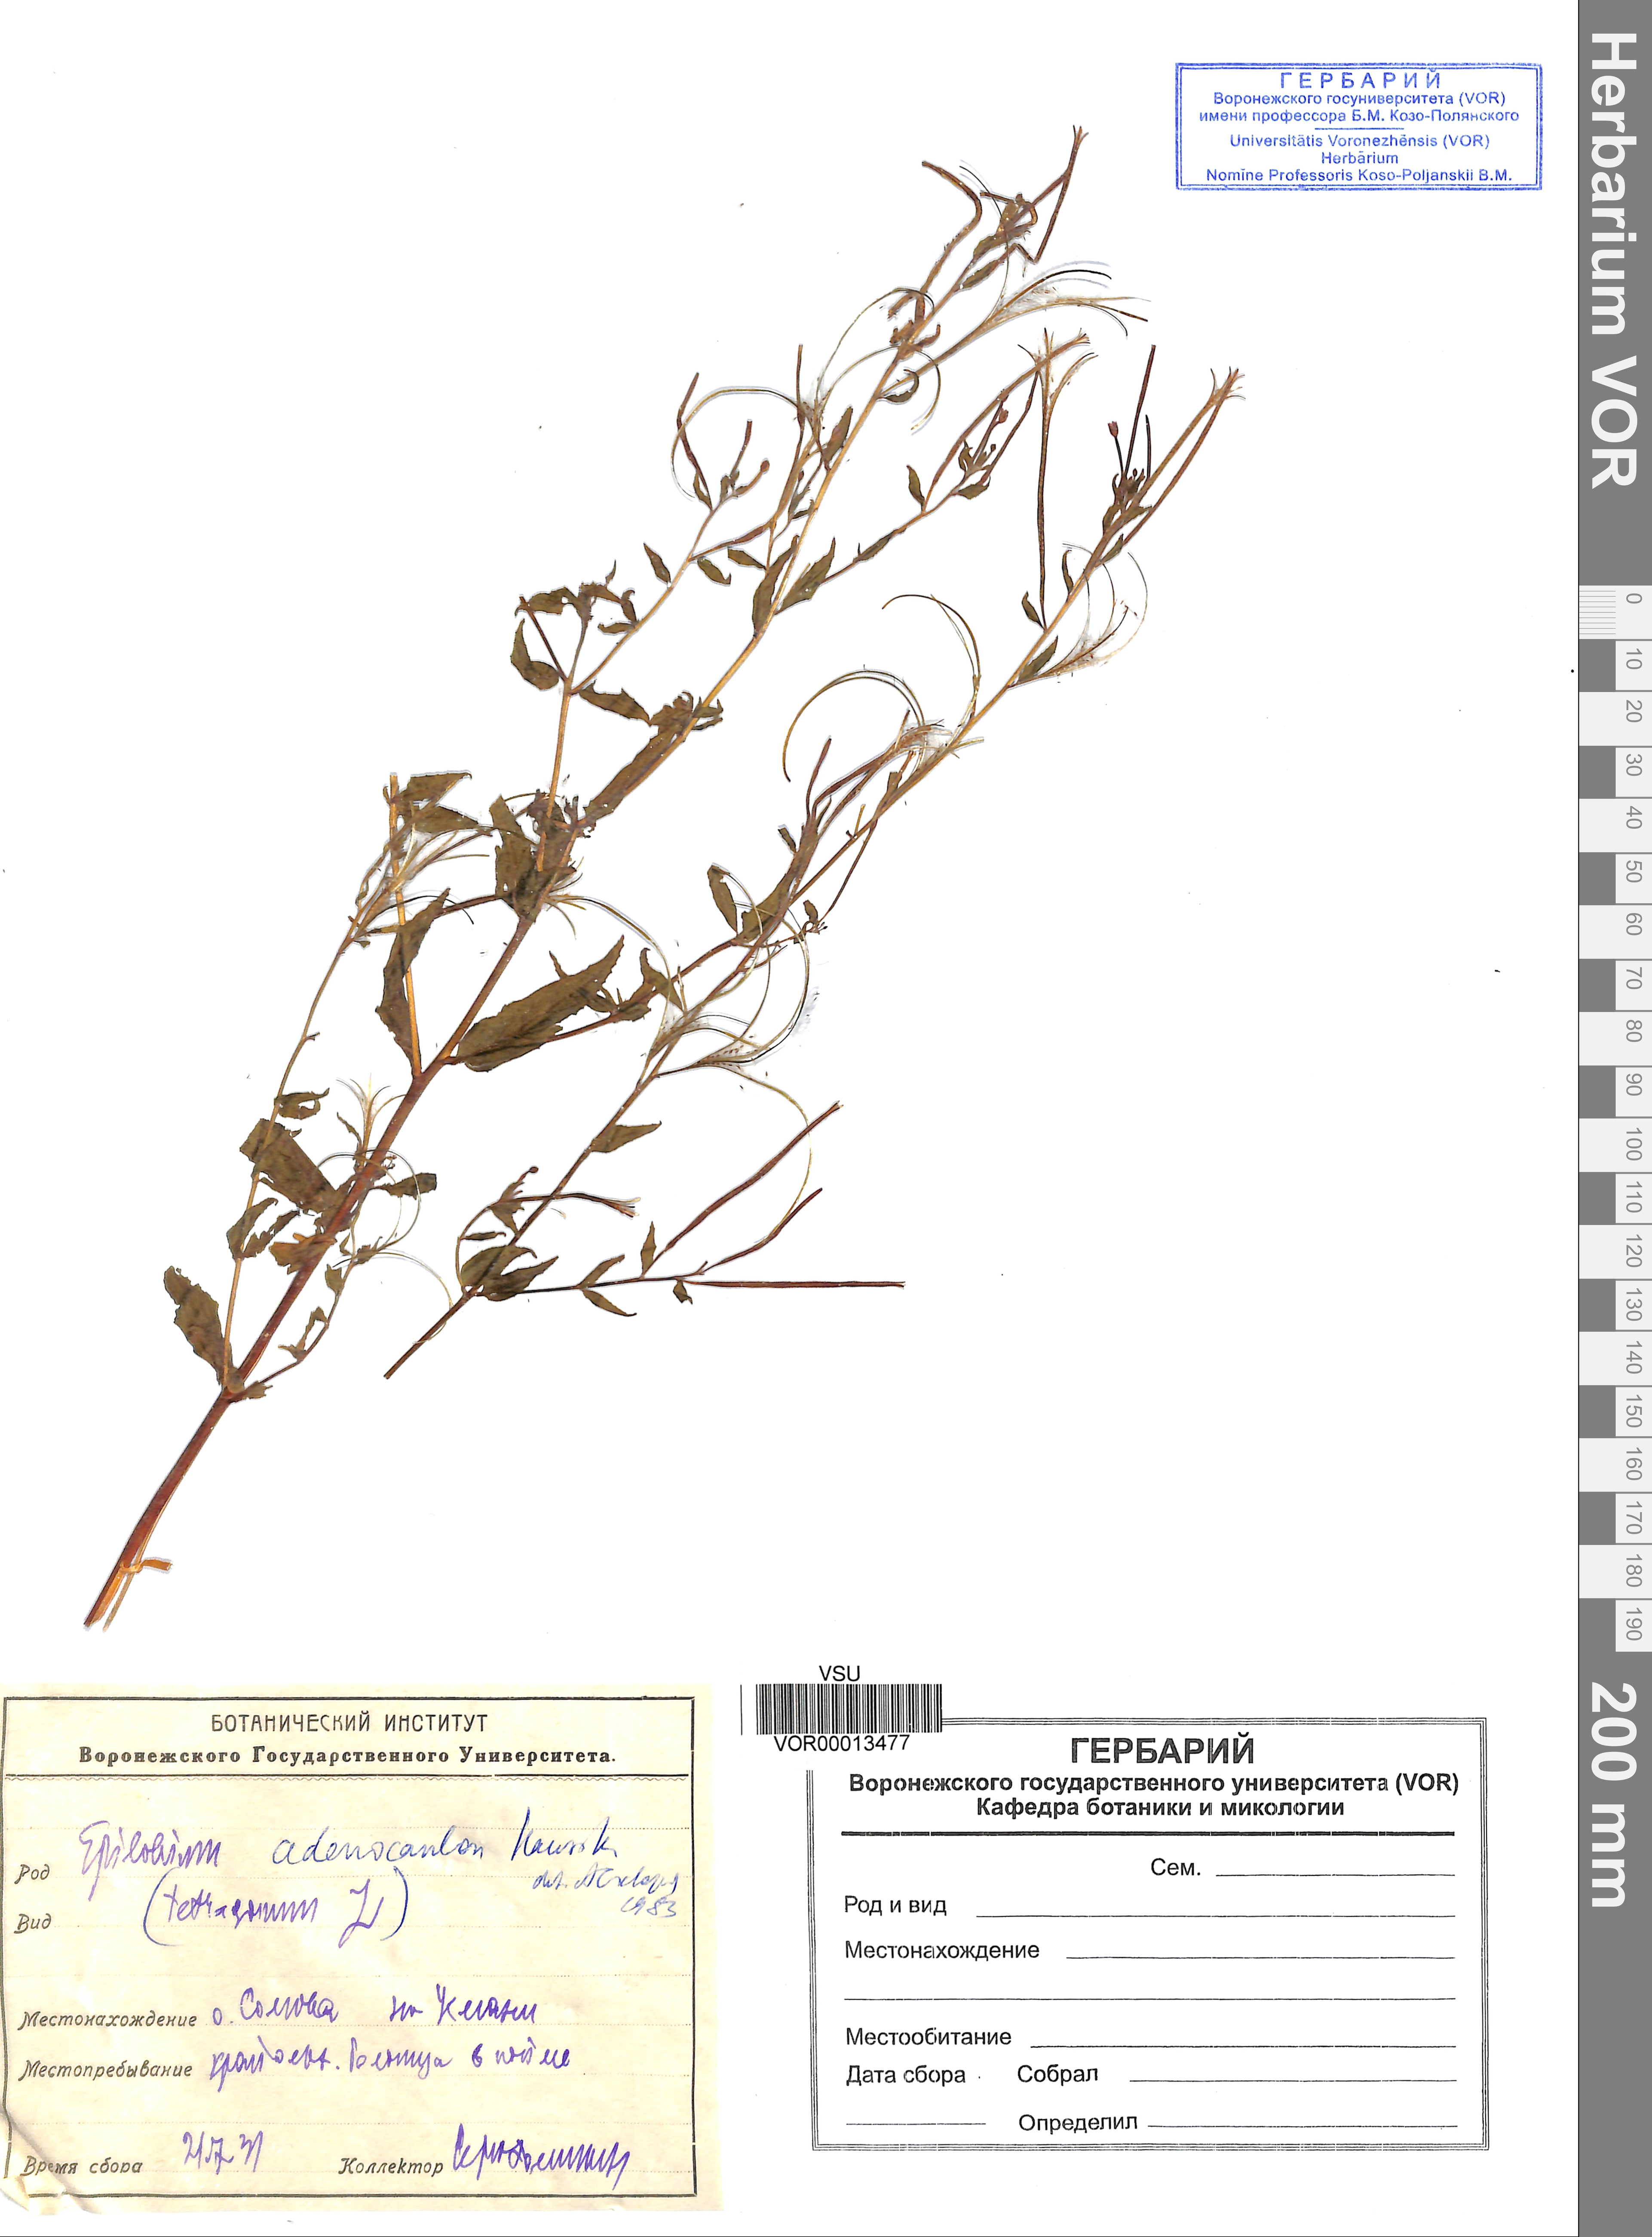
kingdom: Plantae
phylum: Tracheophyta
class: Magnoliopsida
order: Myrtales
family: Onagraceae
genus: Epilobium
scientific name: Epilobium ciliatum
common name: American willowherb
